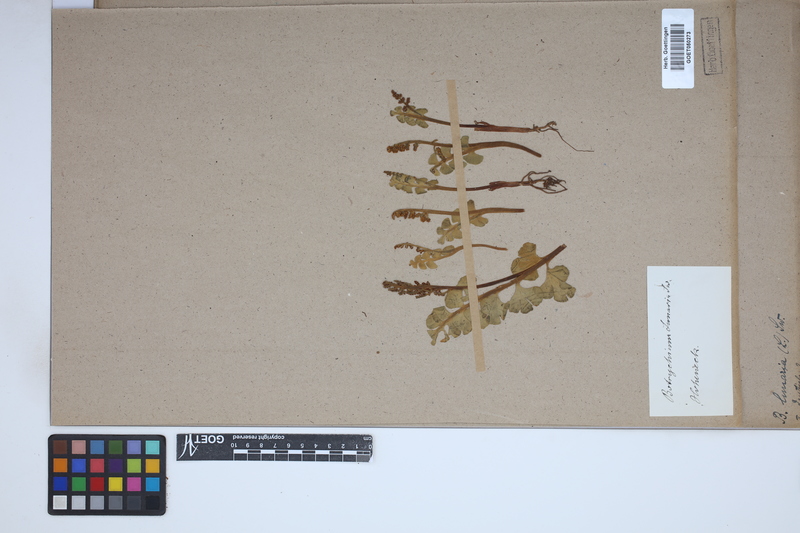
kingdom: Plantae
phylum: Tracheophyta
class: Polypodiopsida
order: Ophioglossales
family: Ophioglossaceae
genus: Botrychium
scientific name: Botrychium lunaria
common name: Moonwort
